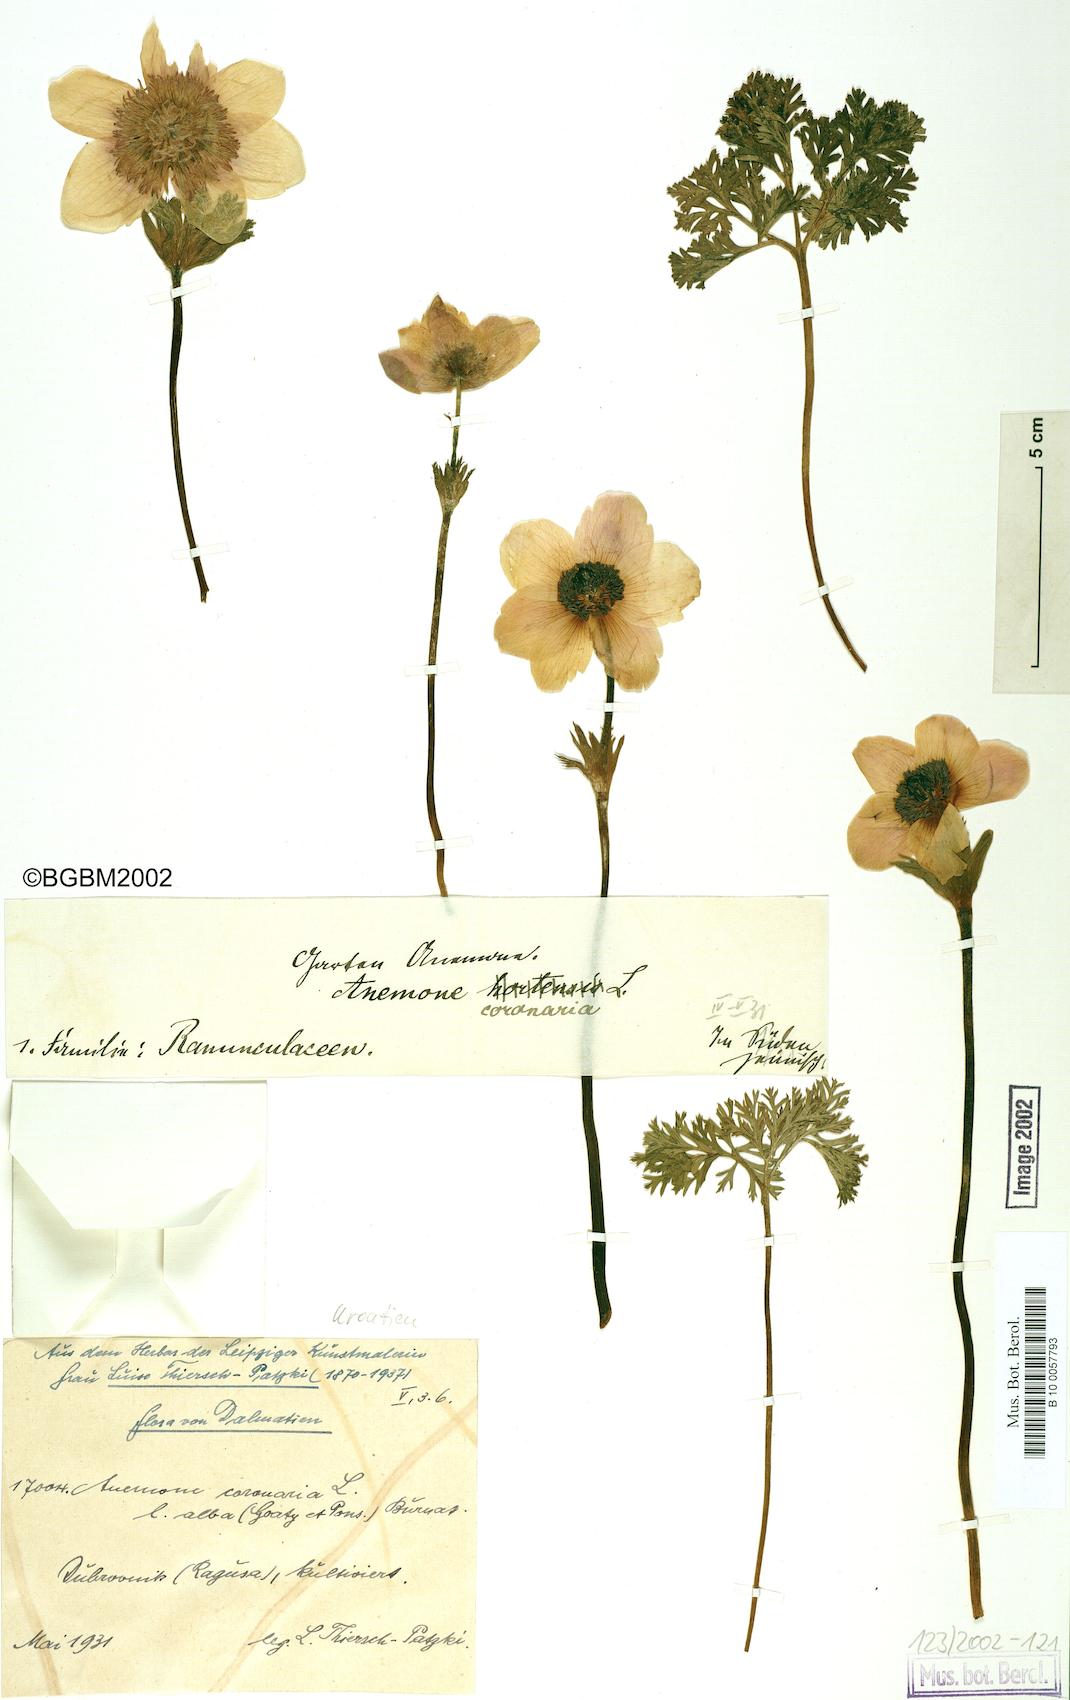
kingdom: Plantae
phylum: Tracheophyta
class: Magnoliopsida
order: Ranunculales
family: Ranunculaceae
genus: Anemone
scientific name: Anemone coronaria
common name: Poppy anemone
